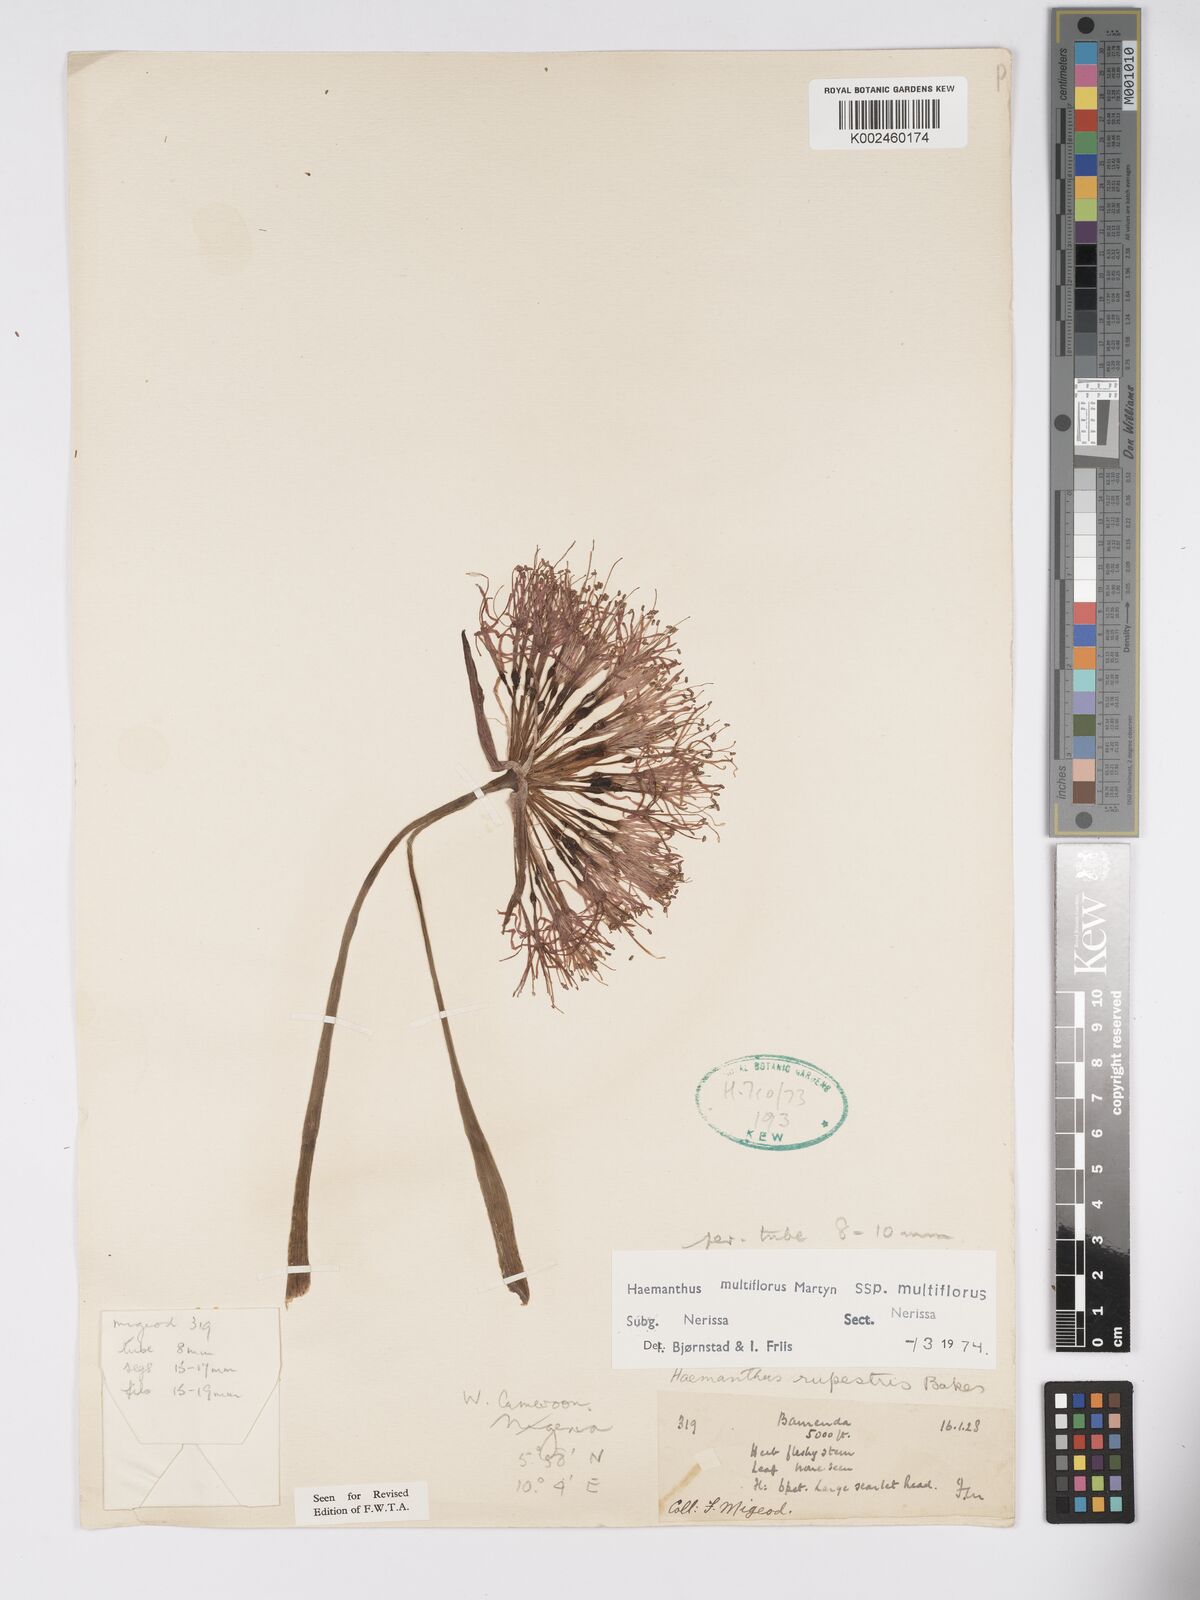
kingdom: Plantae
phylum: Tracheophyta
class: Liliopsida
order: Asparagales
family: Amaryllidaceae
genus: Scadoxus
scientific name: Scadoxus multiflorus
